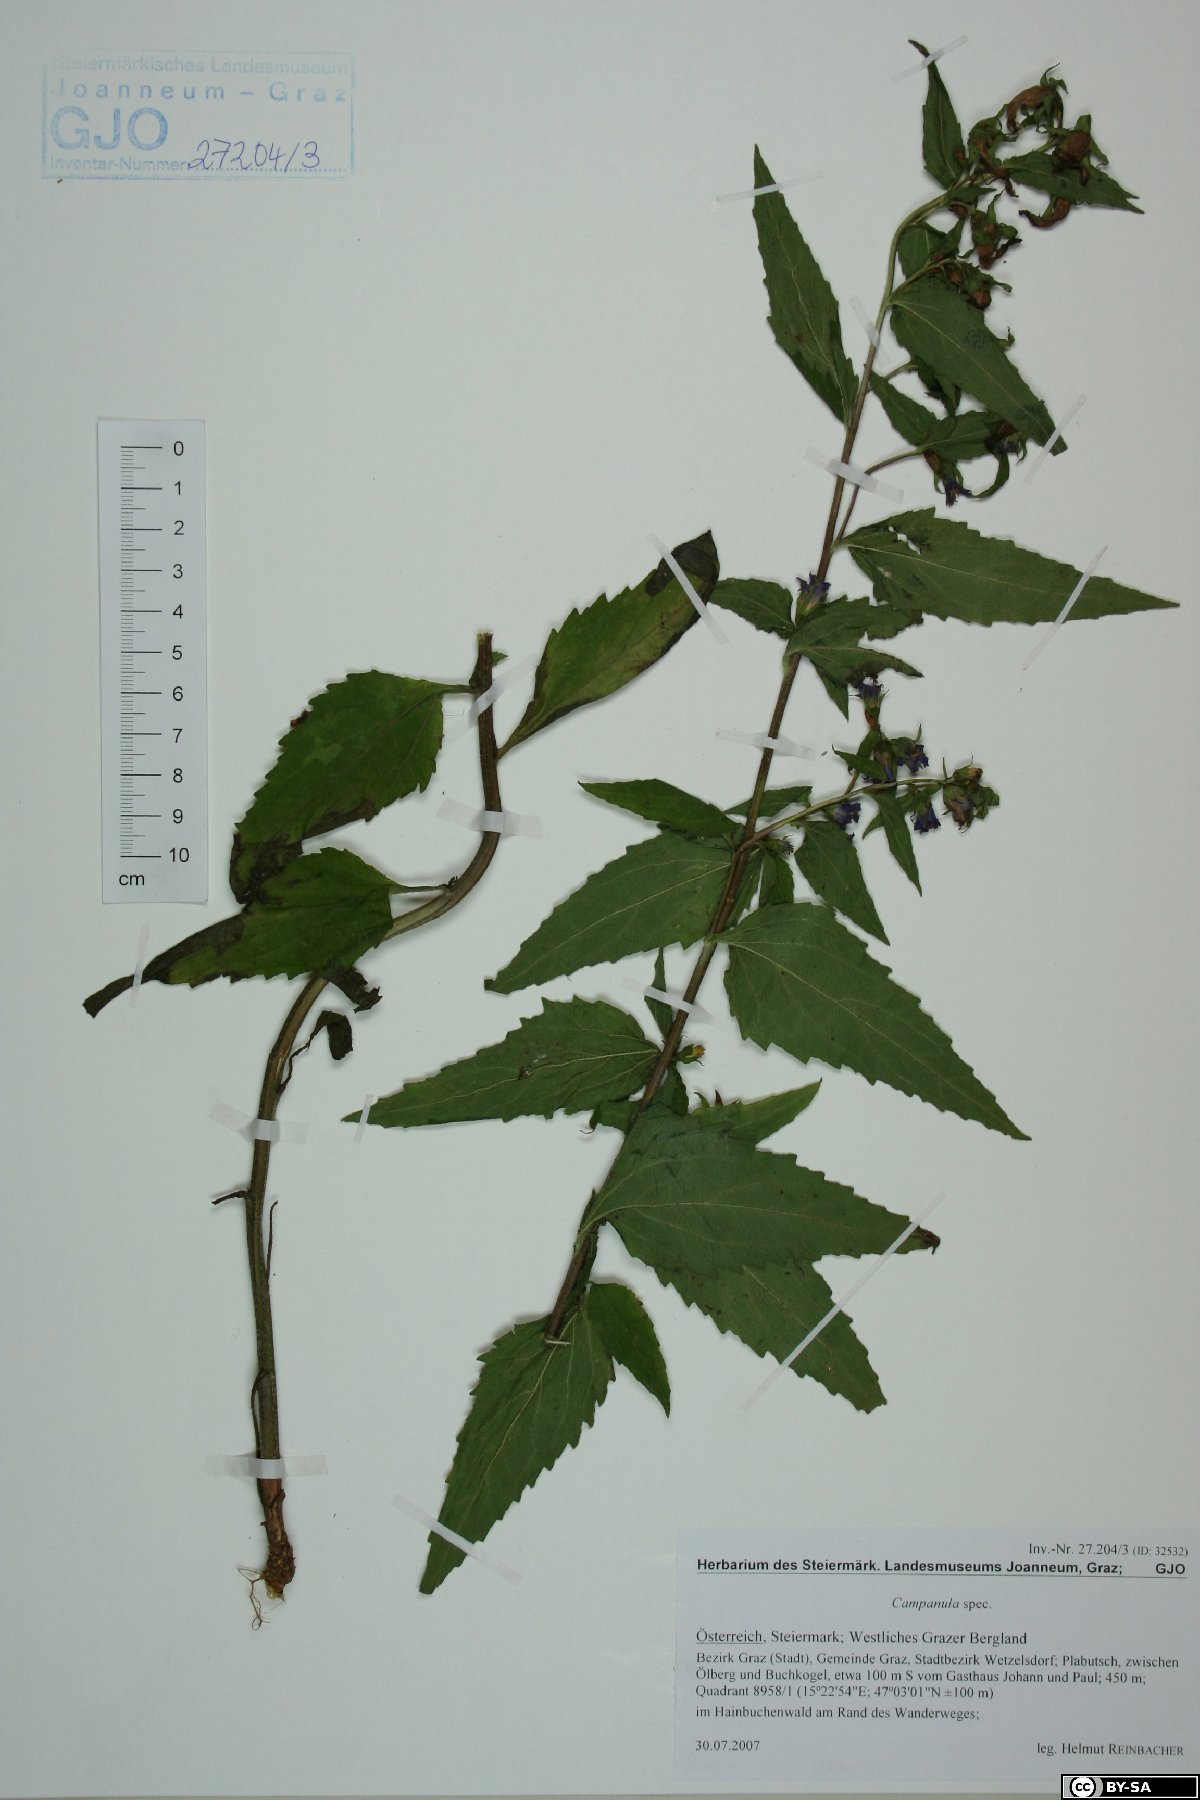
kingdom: Plantae
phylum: Tracheophyta
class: Magnoliopsida
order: Asterales
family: Campanulaceae
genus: Campanula
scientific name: Campanula
